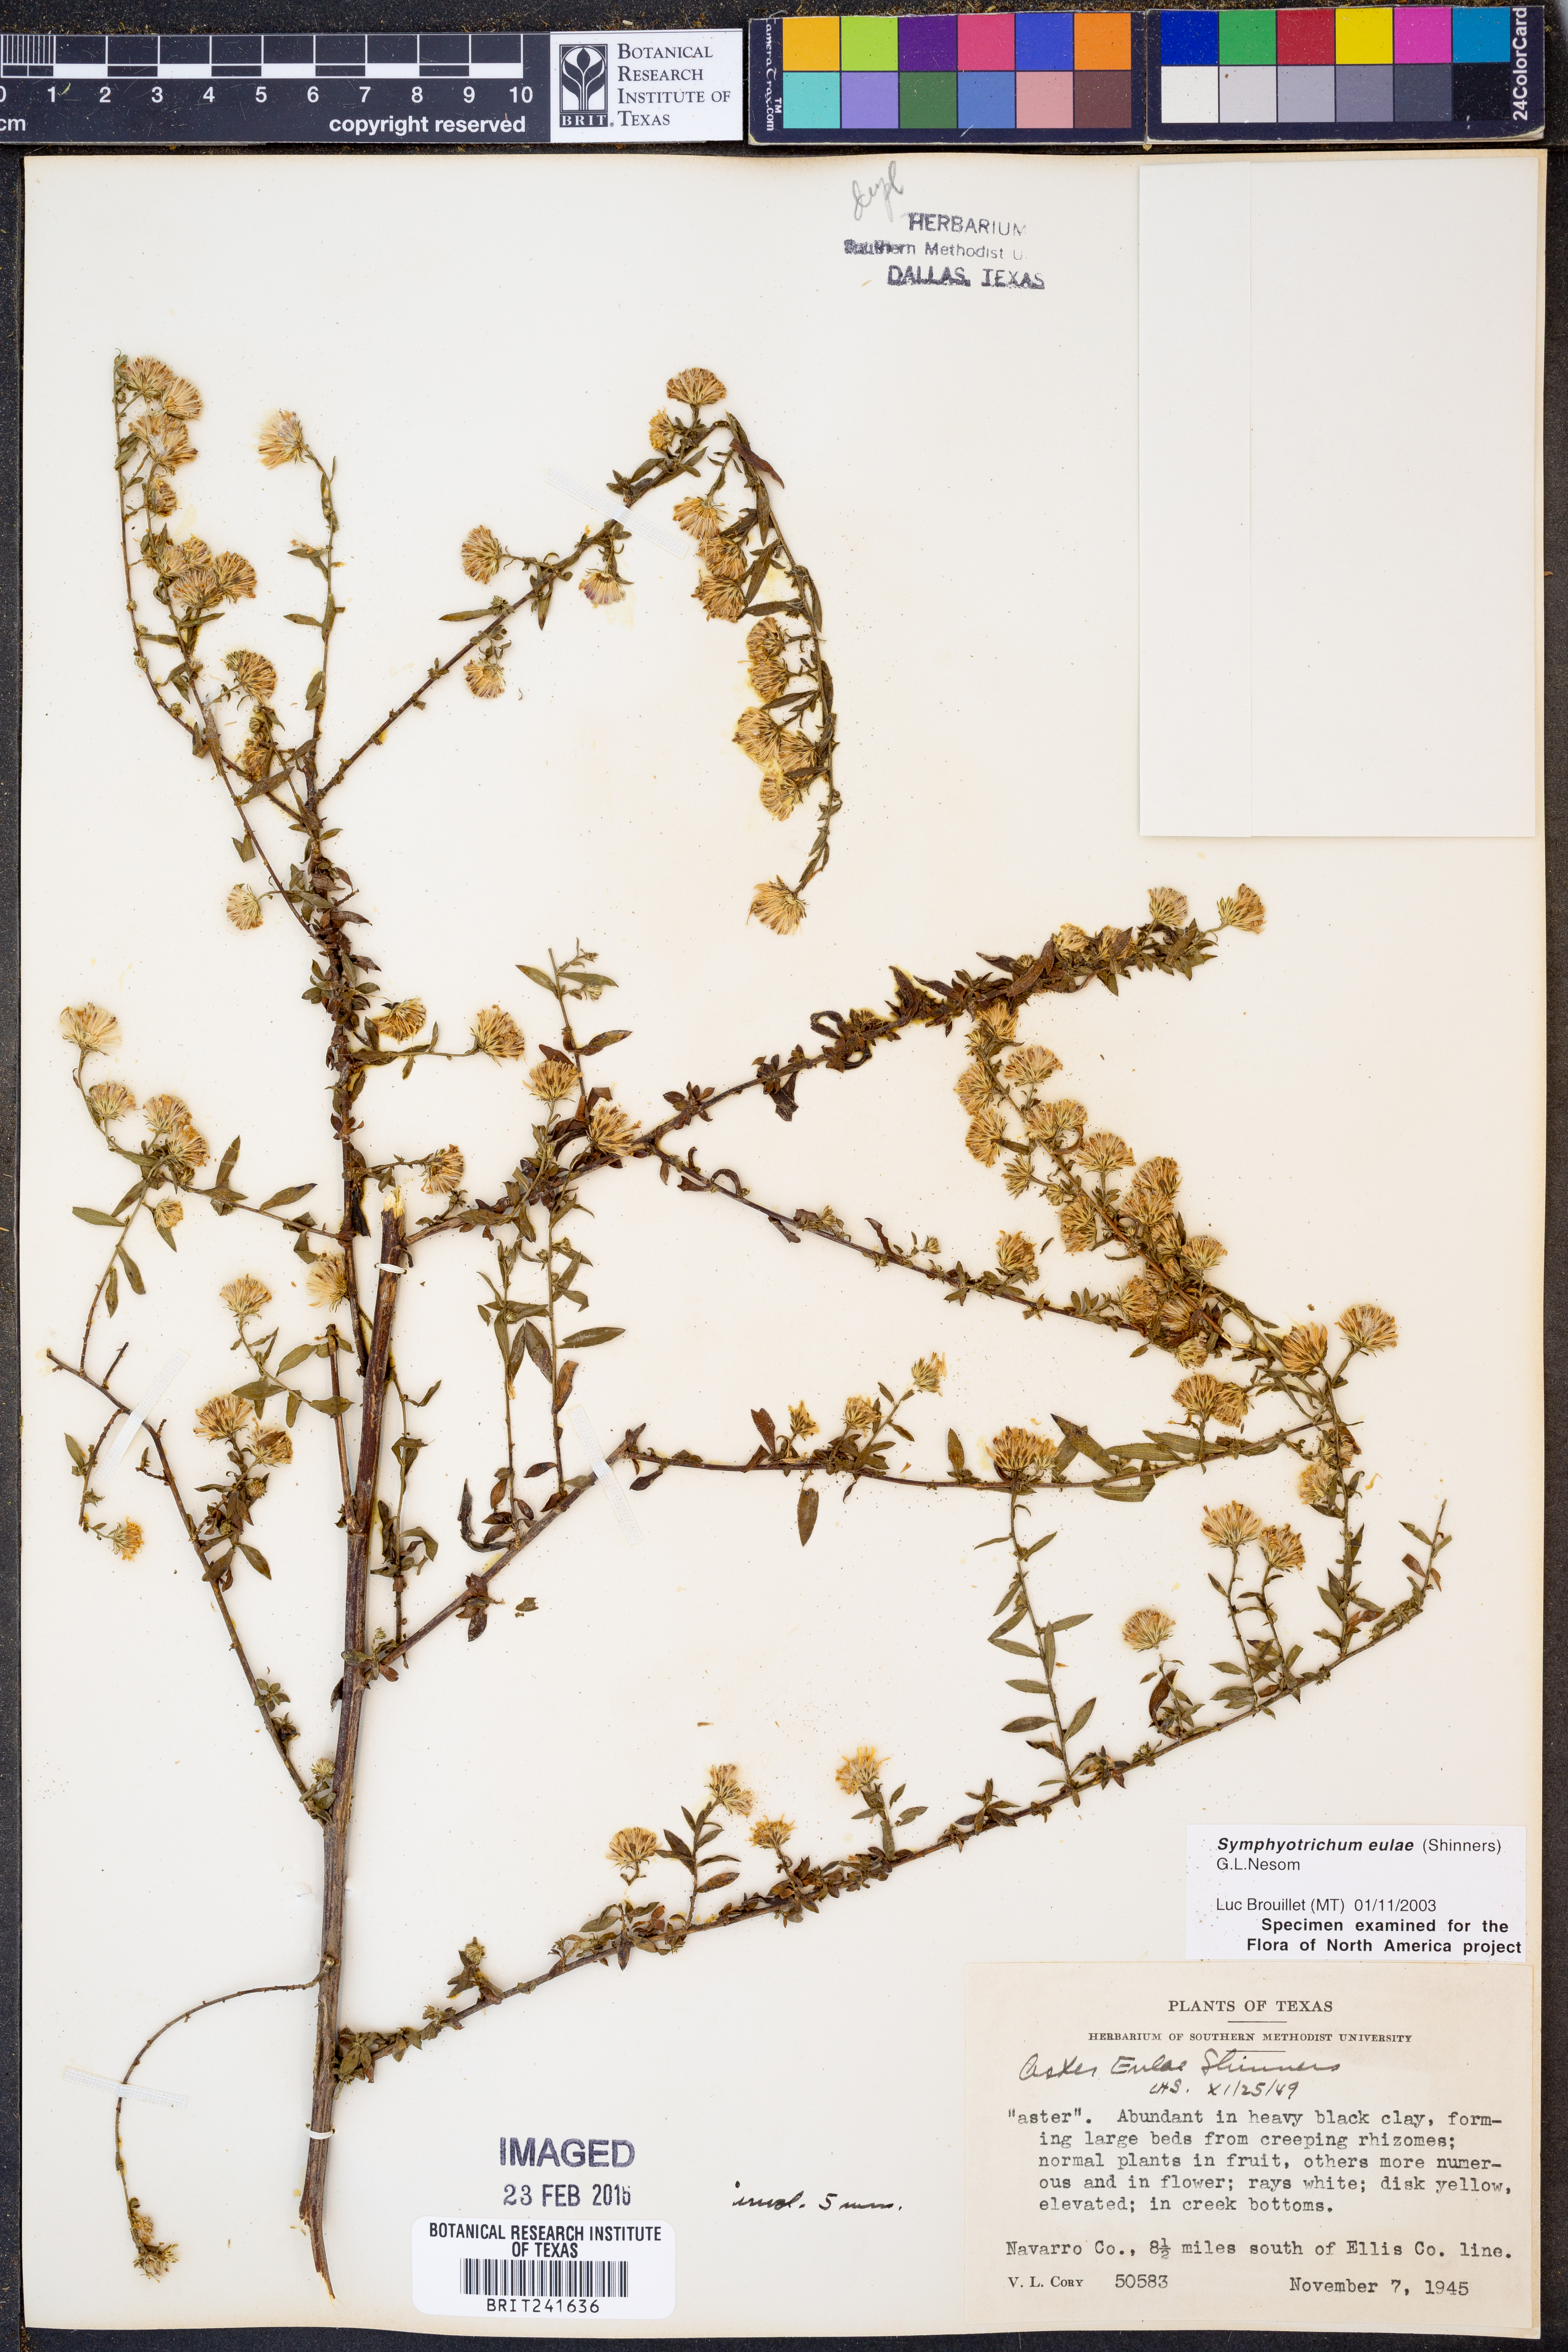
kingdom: Plantae
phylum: Tracheophyta
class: Magnoliopsida
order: Asterales
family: Asteraceae
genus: Symphyotrichum
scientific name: Symphyotrichum eulae
